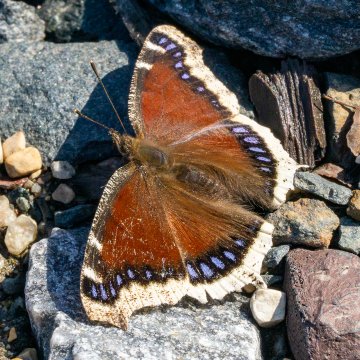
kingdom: Animalia
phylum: Arthropoda
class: Insecta
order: Lepidoptera
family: Nymphalidae
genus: Nymphalis
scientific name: Nymphalis antiopa
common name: Mourning Cloak
